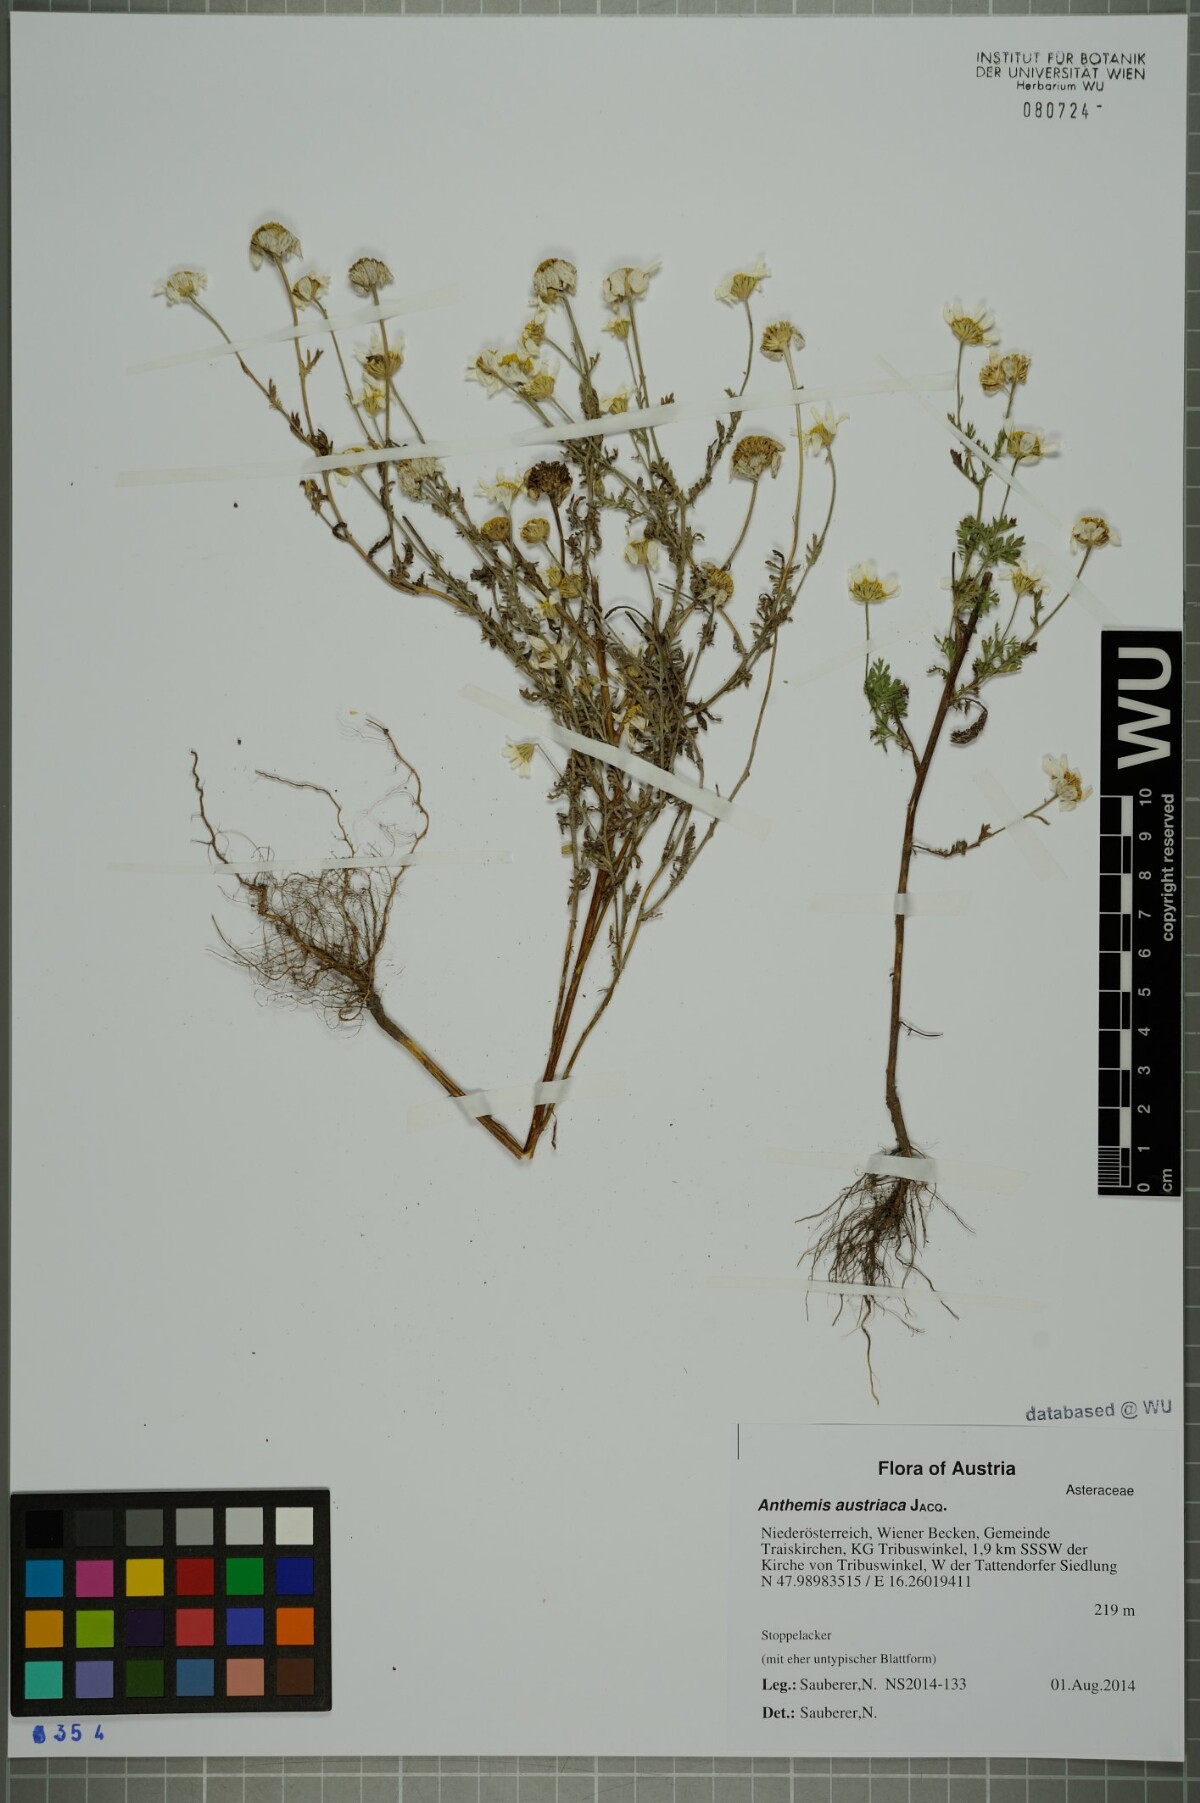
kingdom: Plantae
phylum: Tracheophyta
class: Magnoliopsida
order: Asterales
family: Asteraceae
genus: Cota
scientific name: Cota austriaca
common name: Austrian chamomile
